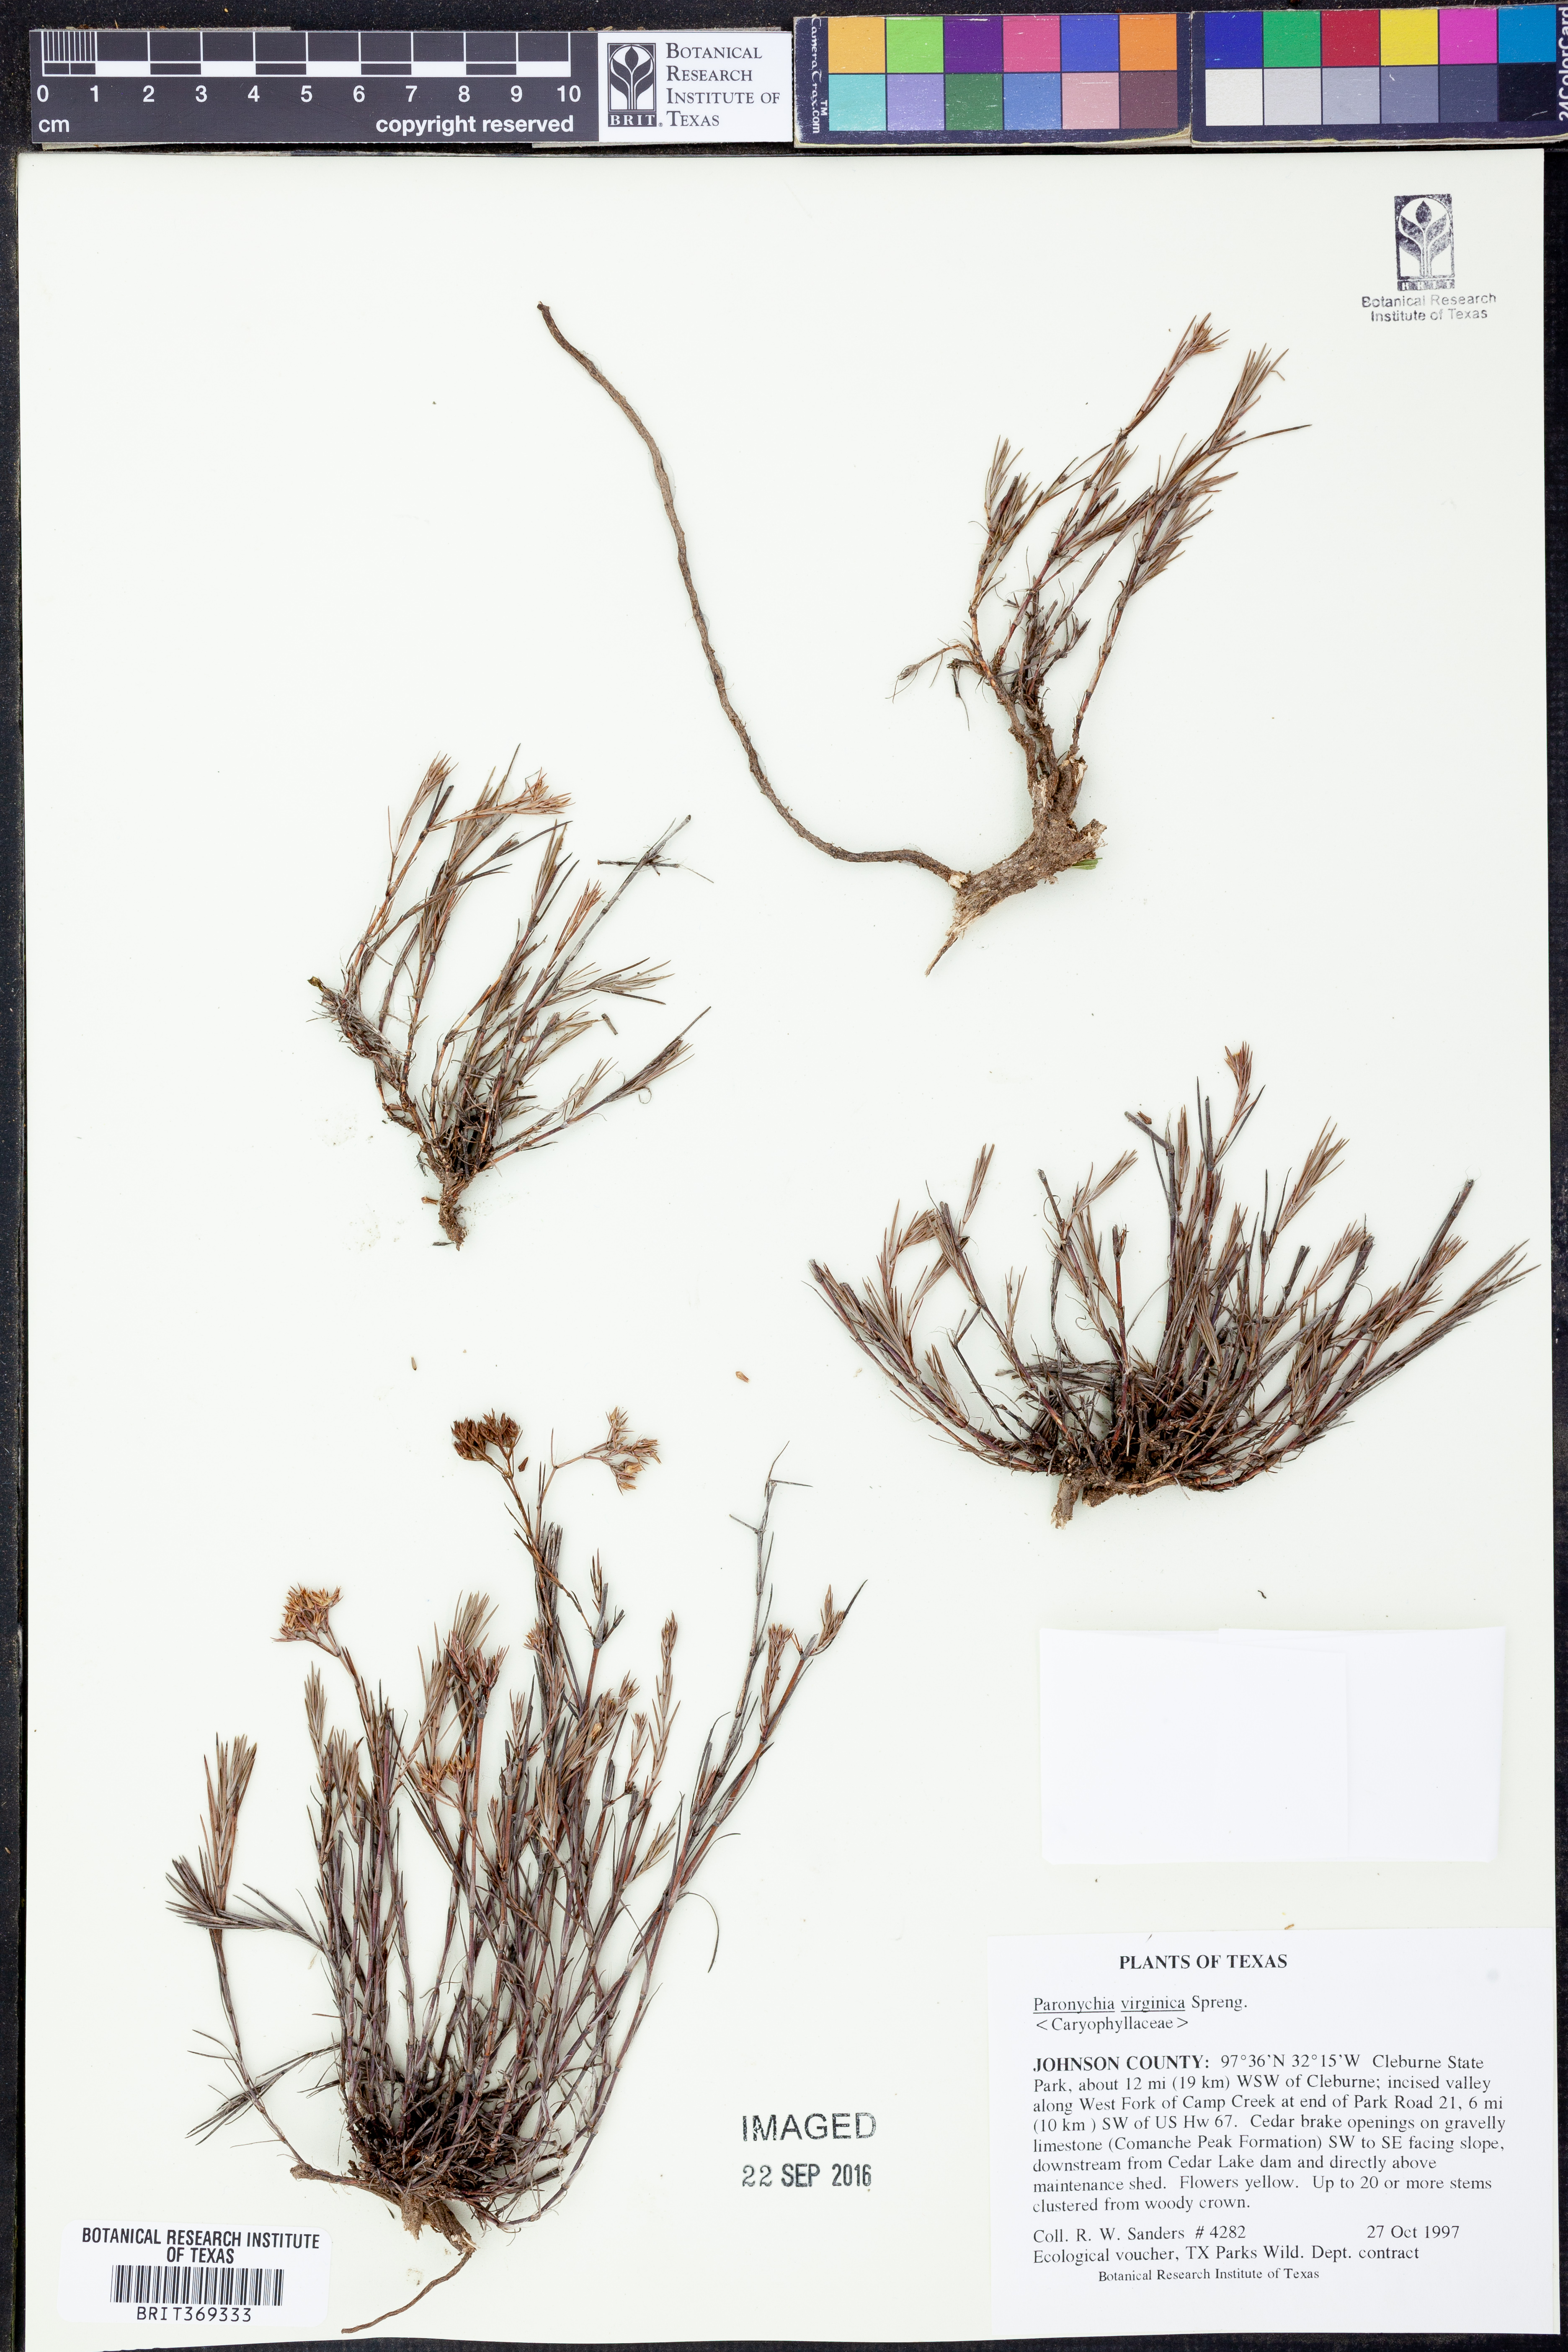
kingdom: Plantae
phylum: Tracheophyta
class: Magnoliopsida
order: Caryophyllales
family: Caryophyllaceae
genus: Paronychia
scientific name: Paronychia virginica
